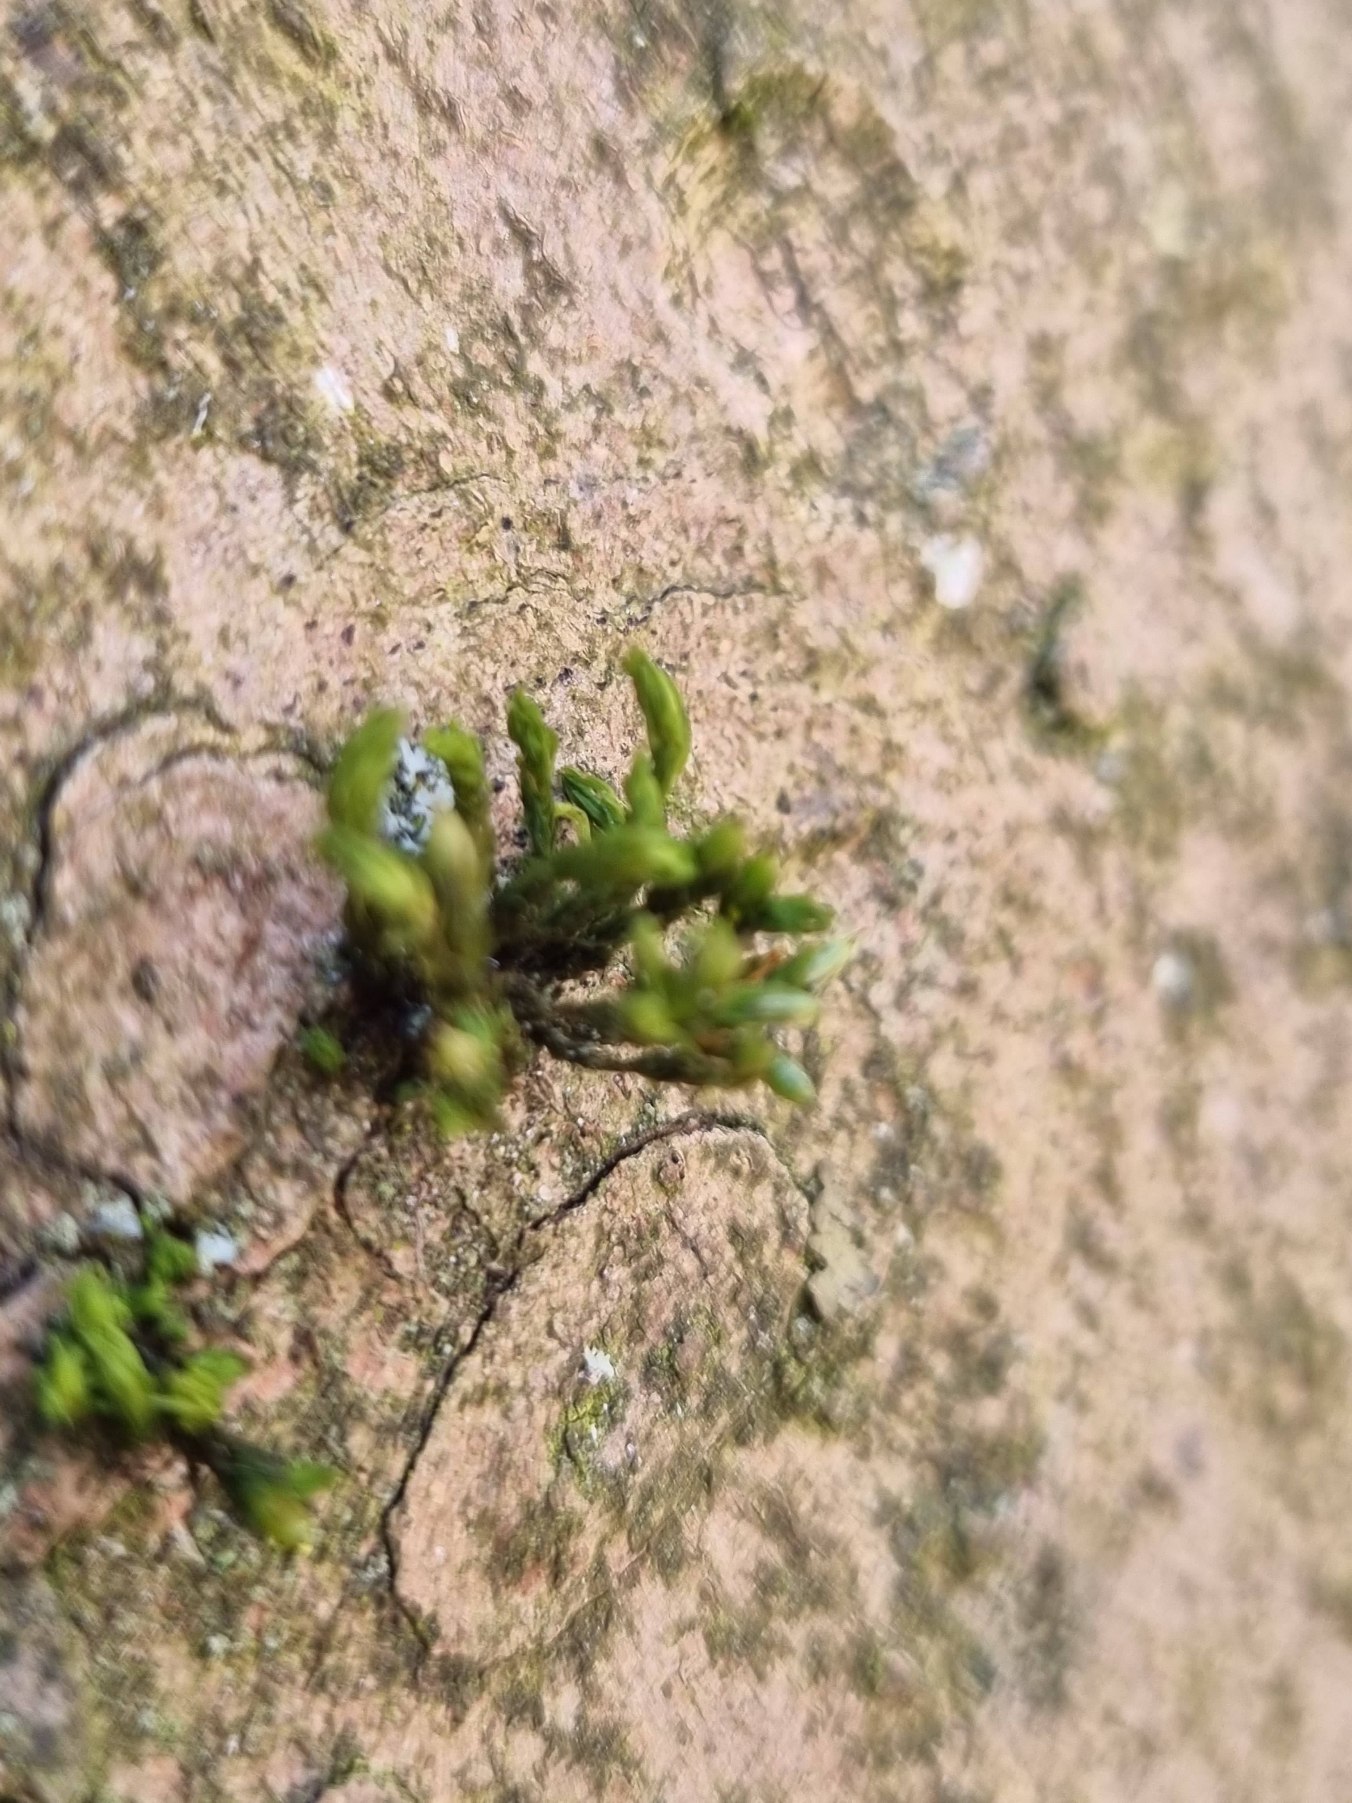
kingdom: Plantae
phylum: Bryophyta
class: Bryopsida
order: Orthotrichales
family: Orthotrichaceae
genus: Orthotrichum
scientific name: Orthotrichum
